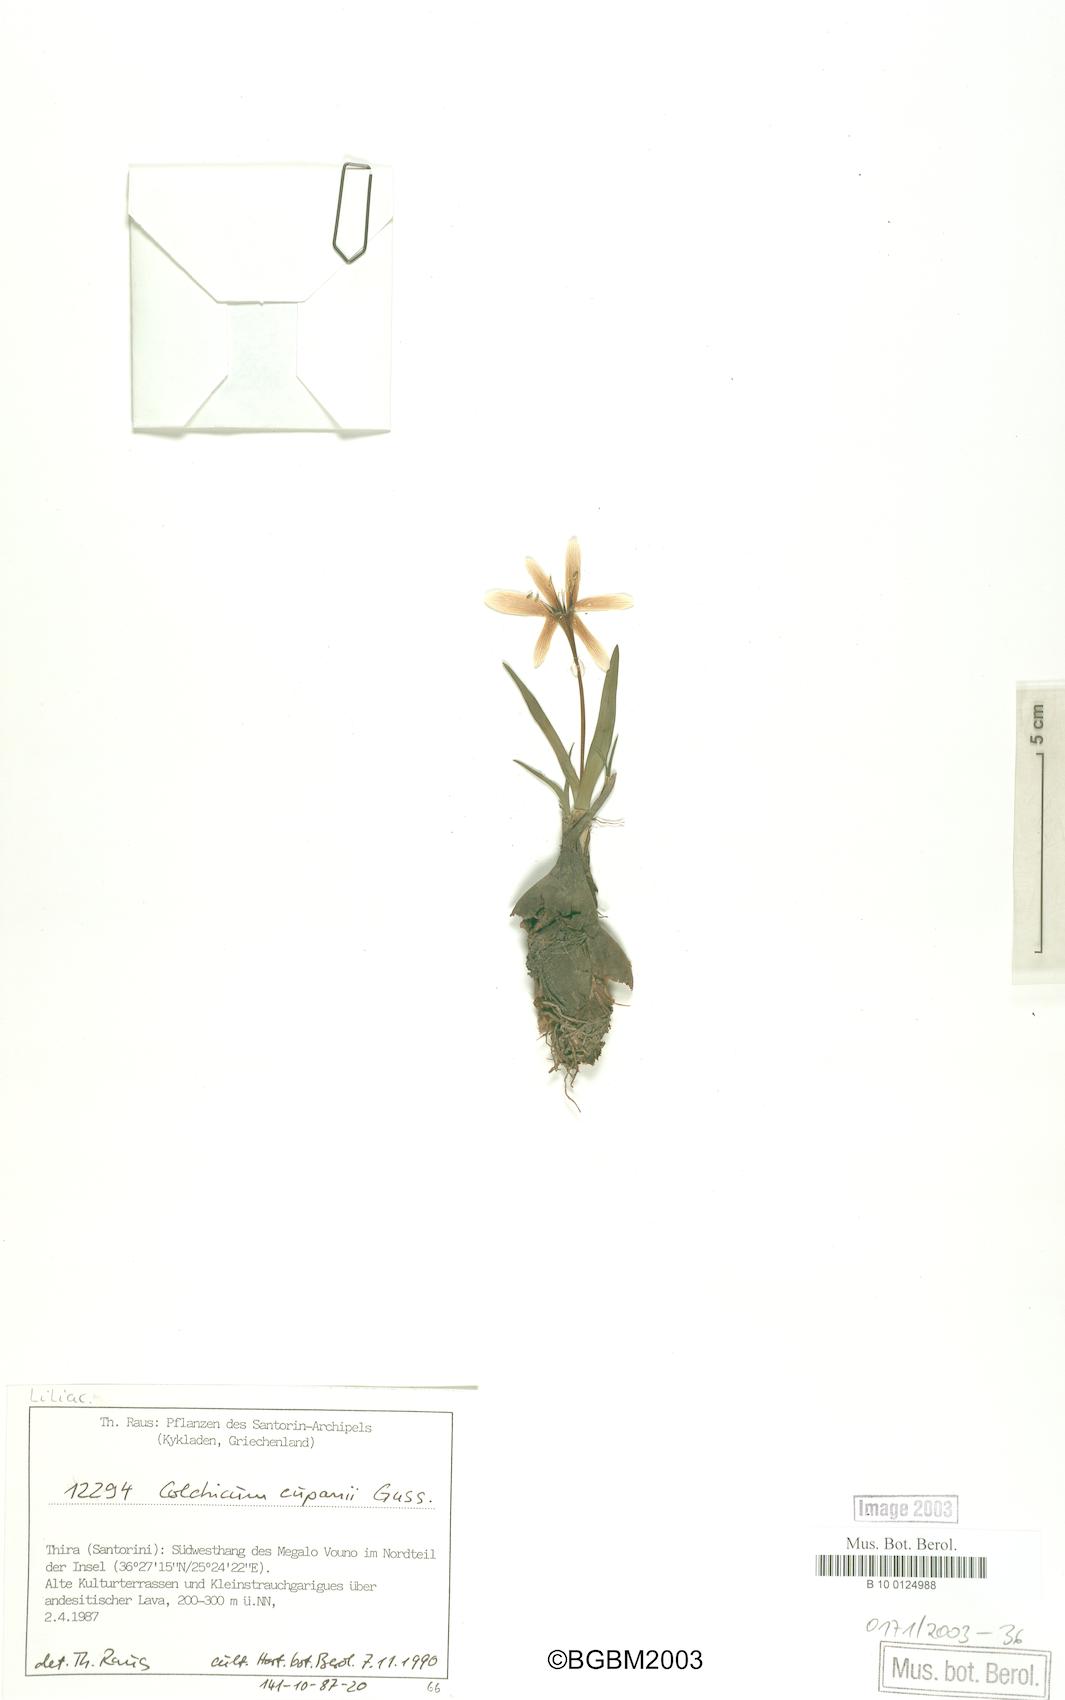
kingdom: Plantae
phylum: Tracheophyta
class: Liliopsida
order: Liliales
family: Colchicaceae
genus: Colchicum
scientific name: Colchicum cupanii
